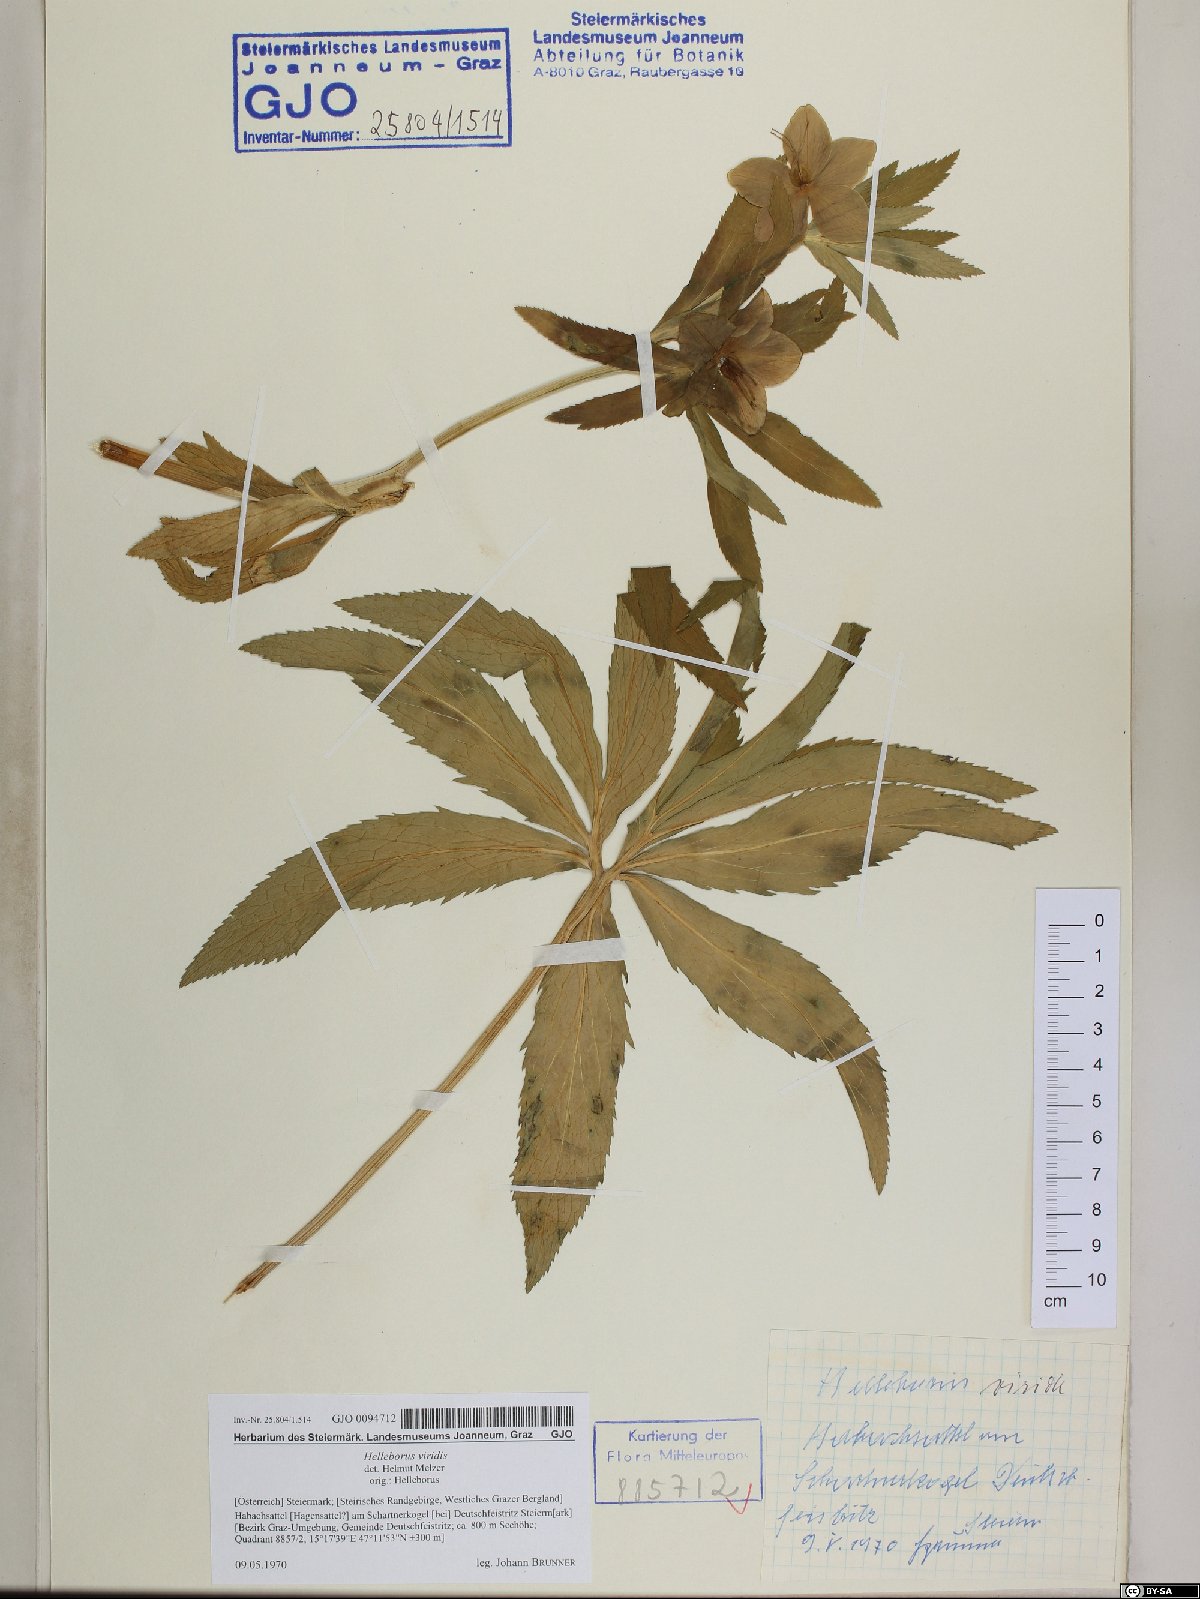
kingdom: Plantae
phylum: Tracheophyta
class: Magnoliopsida
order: Ranunculales
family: Ranunculaceae
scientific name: Ranunculaceae
